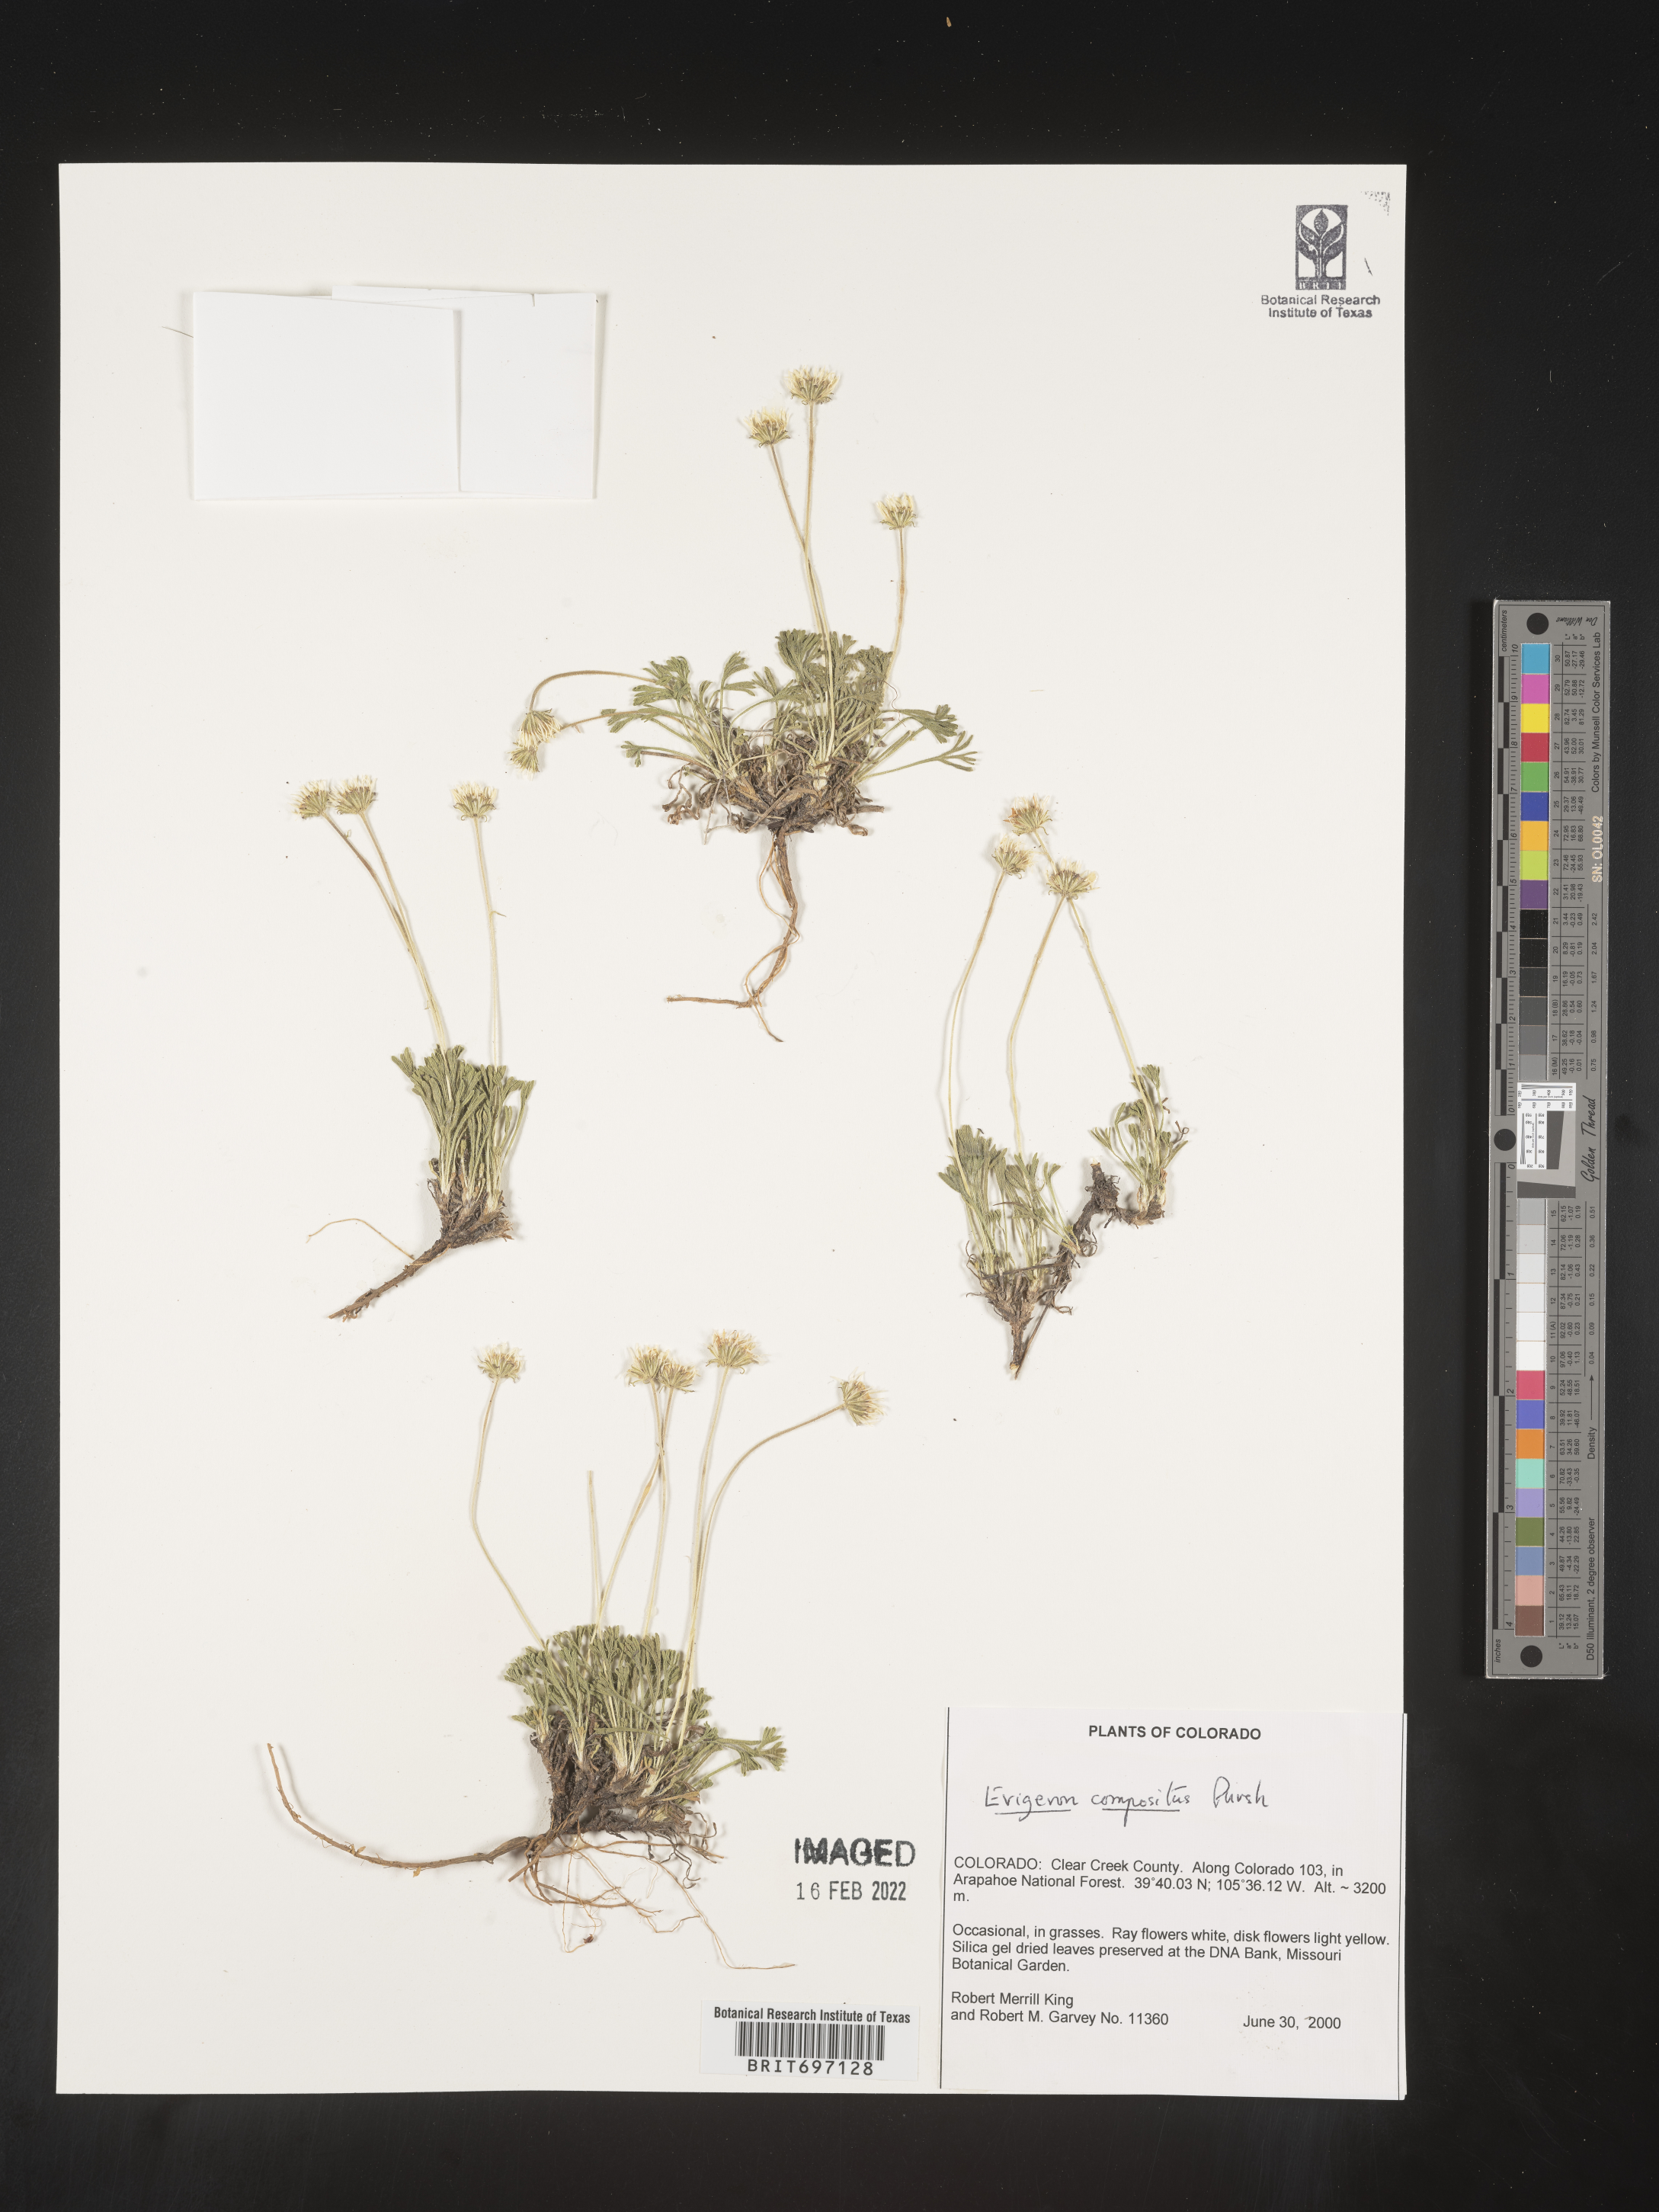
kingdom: Plantae
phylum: Tracheophyta
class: Magnoliopsida
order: Asterales
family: Asteraceae
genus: Erigeron
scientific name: Erigeron compositus
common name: Dwarf mountain fleabane
